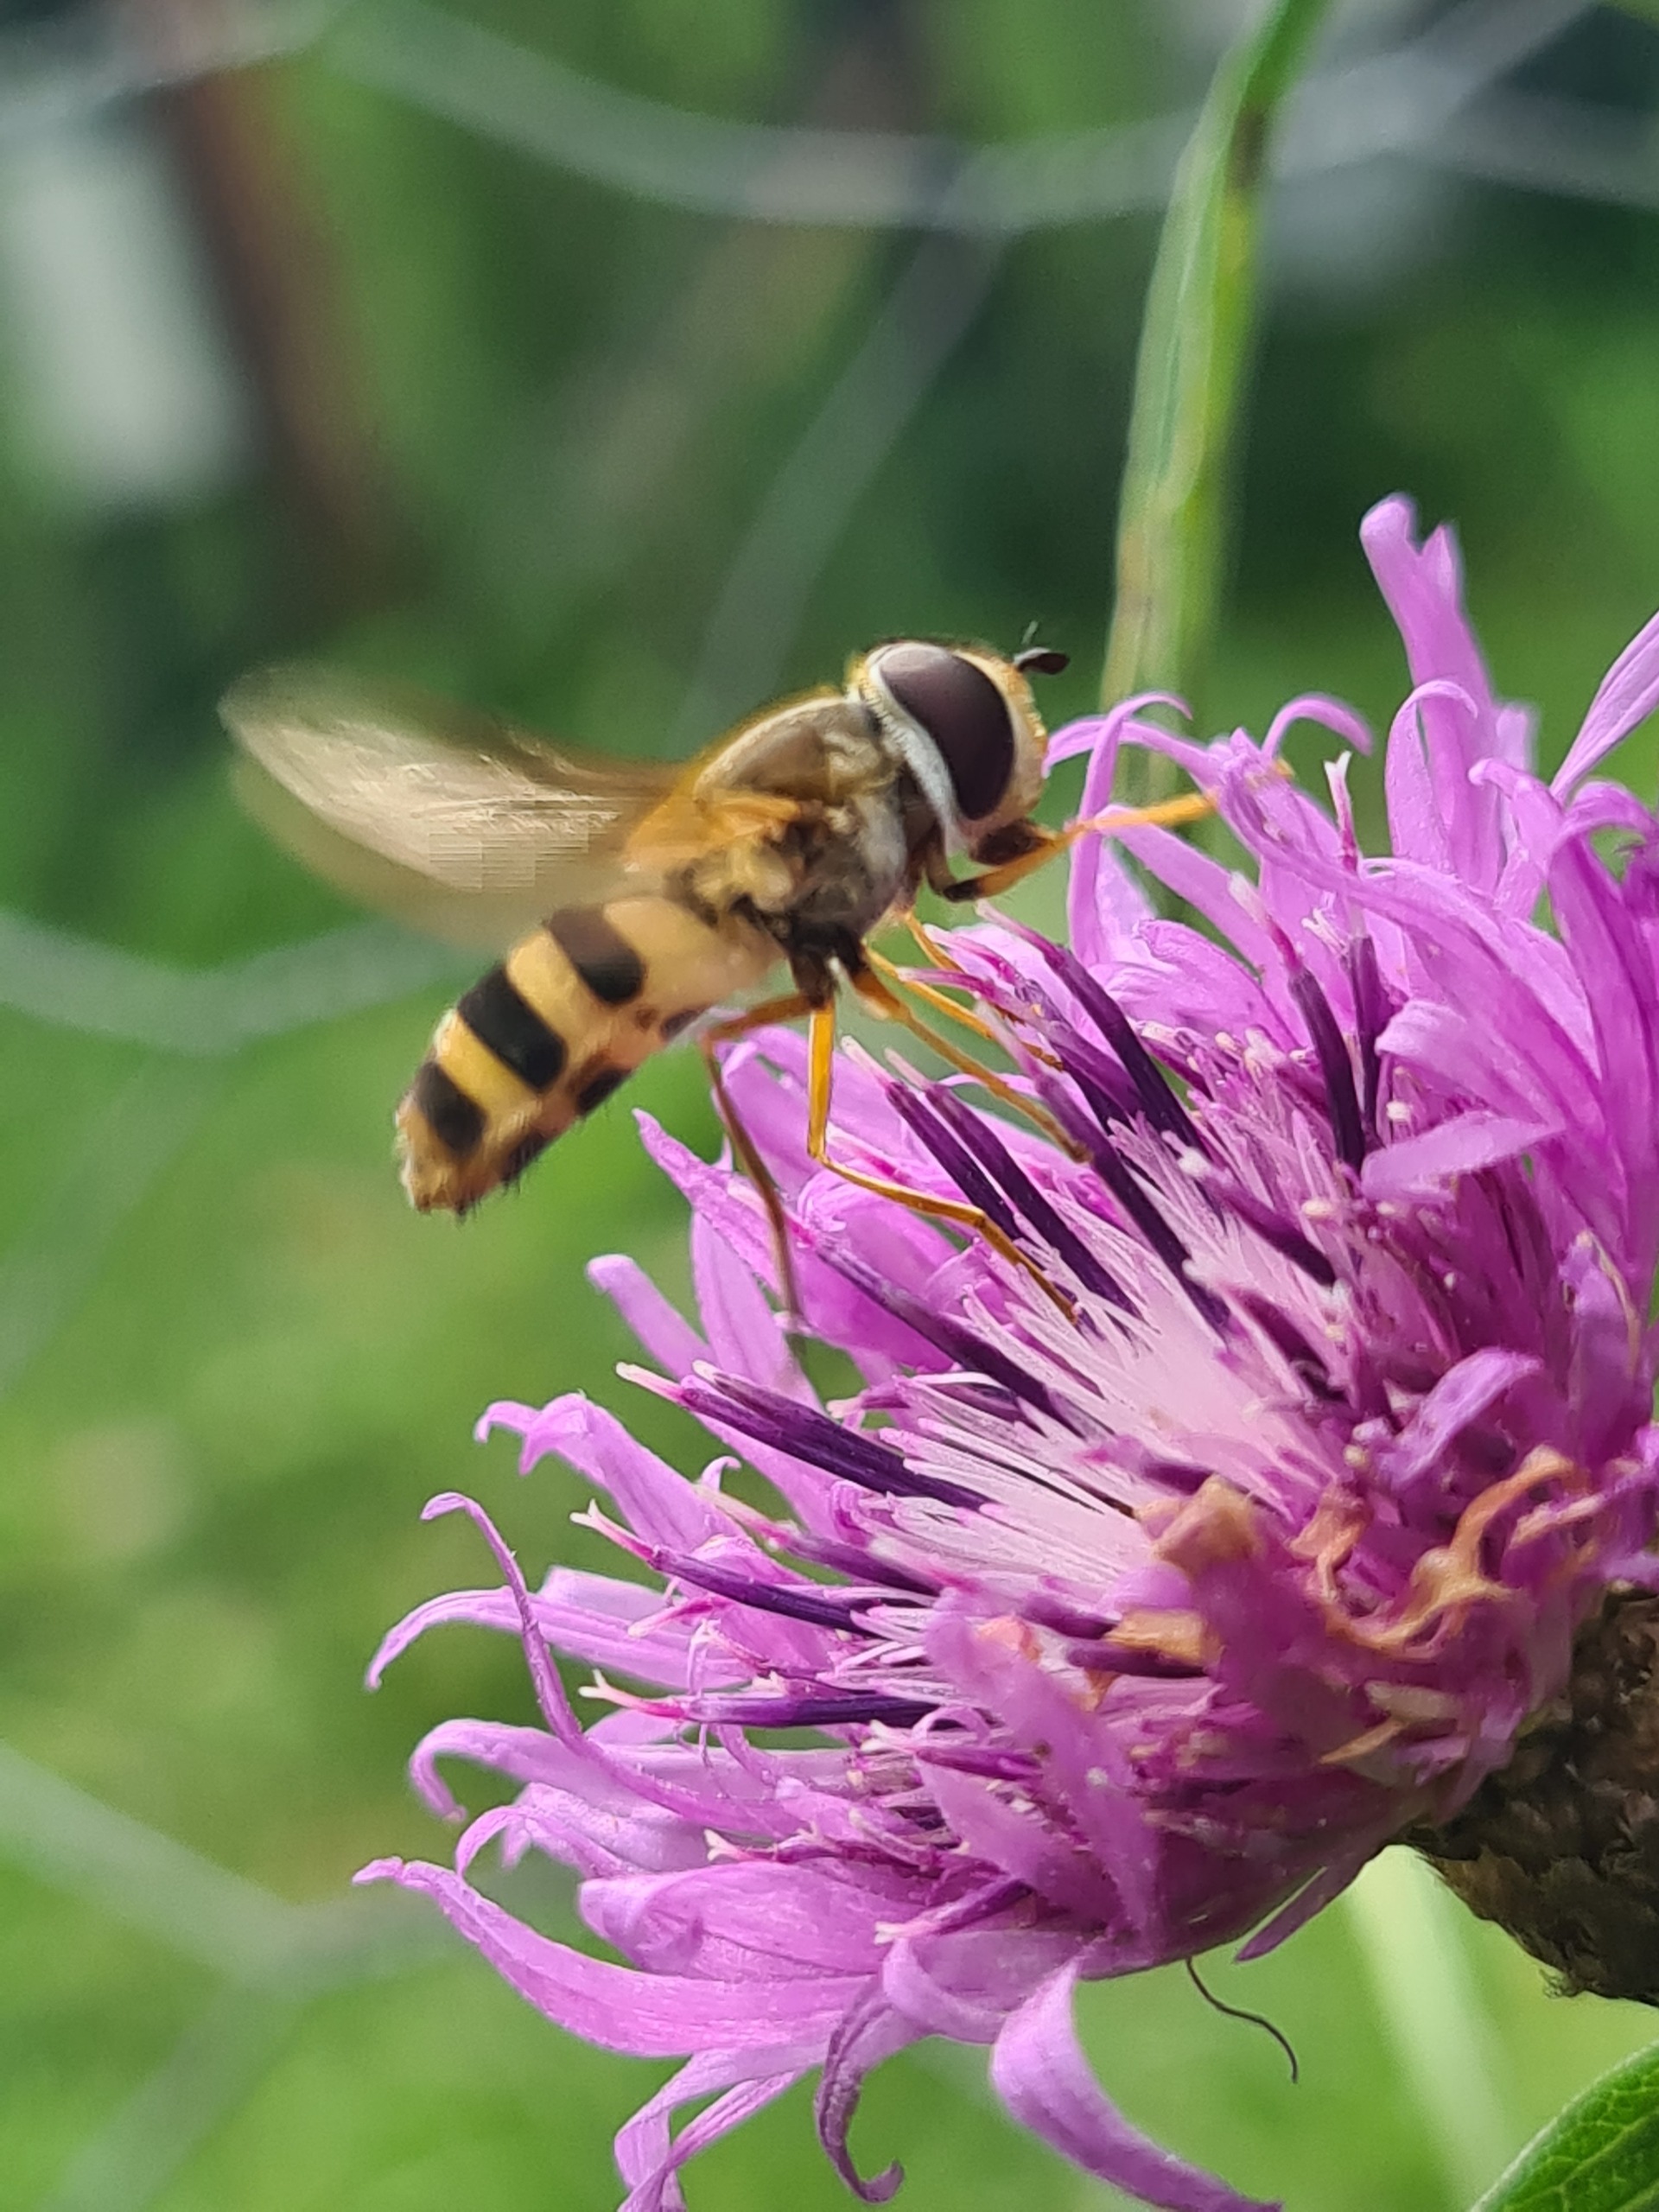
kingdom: Animalia
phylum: Arthropoda
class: Insecta
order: Diptera
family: Syrphidae
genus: Epistrophe
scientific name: Epistrophe grossulariae
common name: Stikkelsbær-glanssvirreflue
